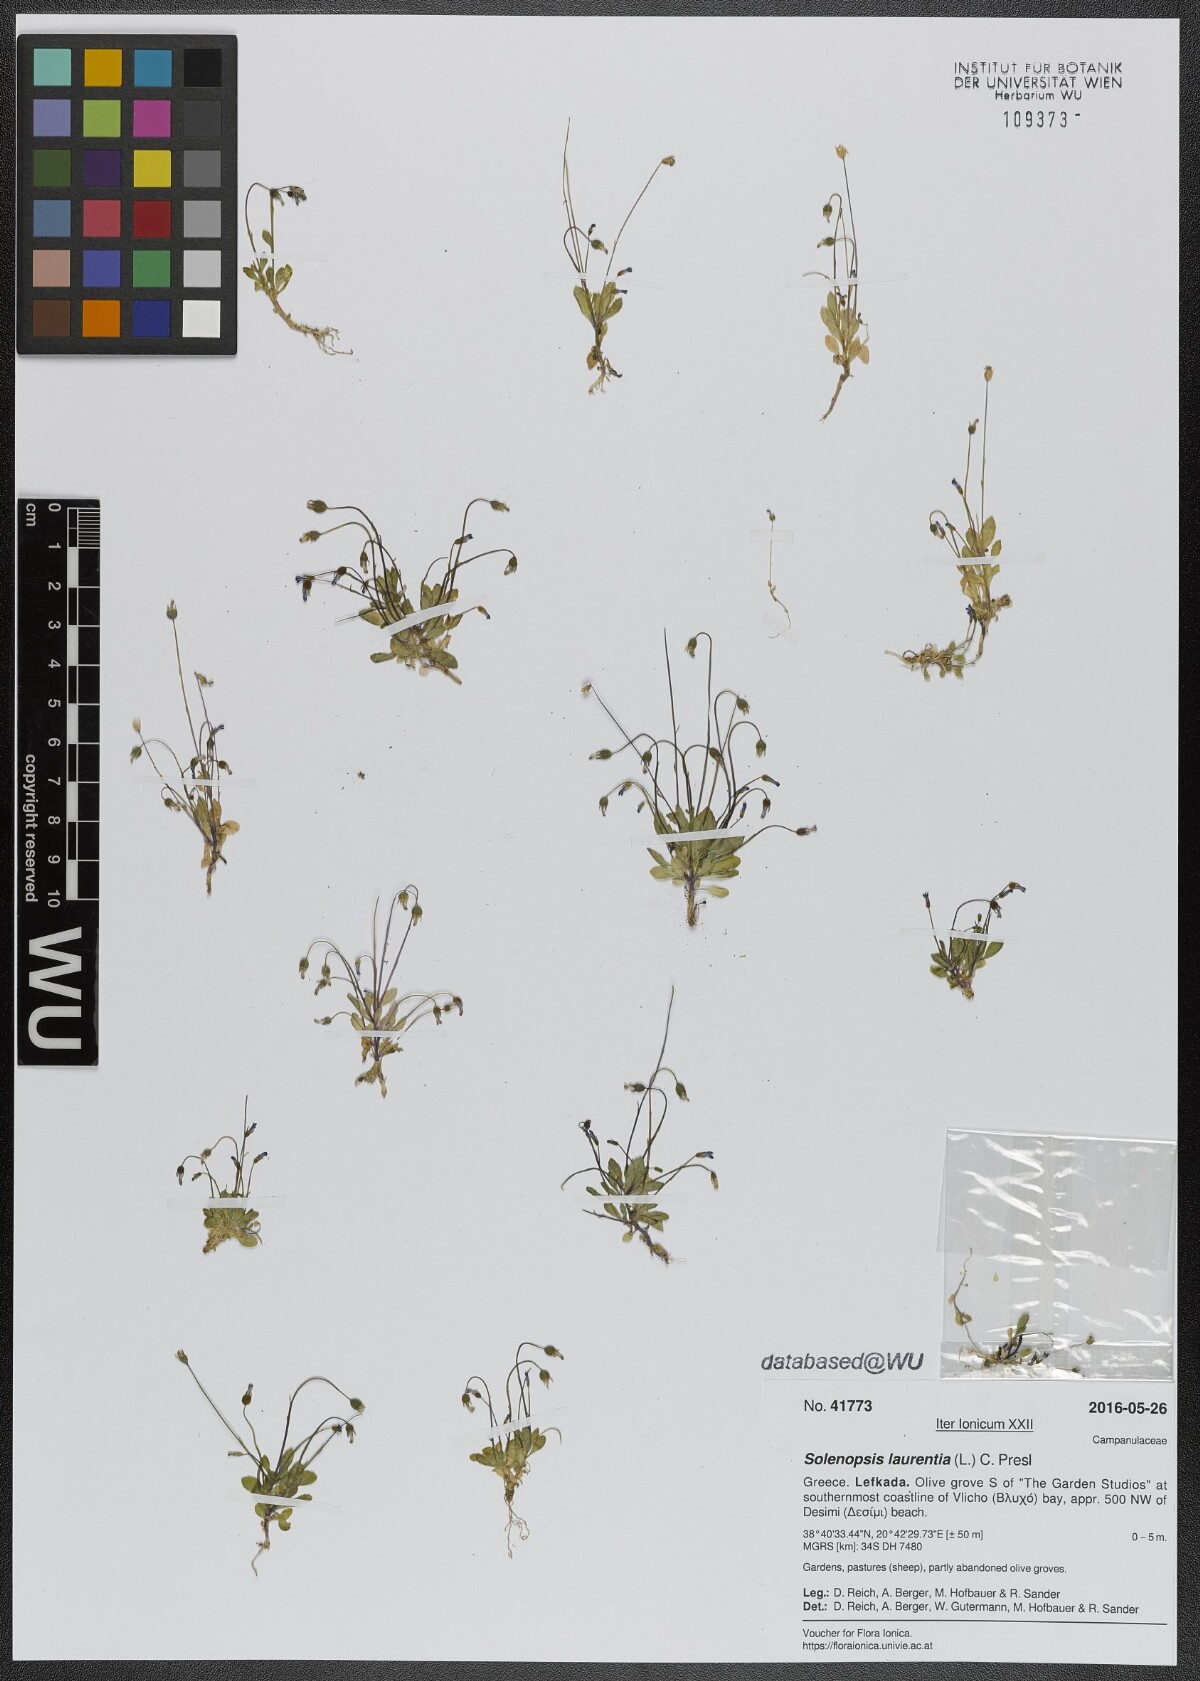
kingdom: Plantae
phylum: Tracheophyta
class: Magnoliopsida
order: Asterales
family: Campanulaceae
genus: Solenopsis
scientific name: Solenopsis laurentia
